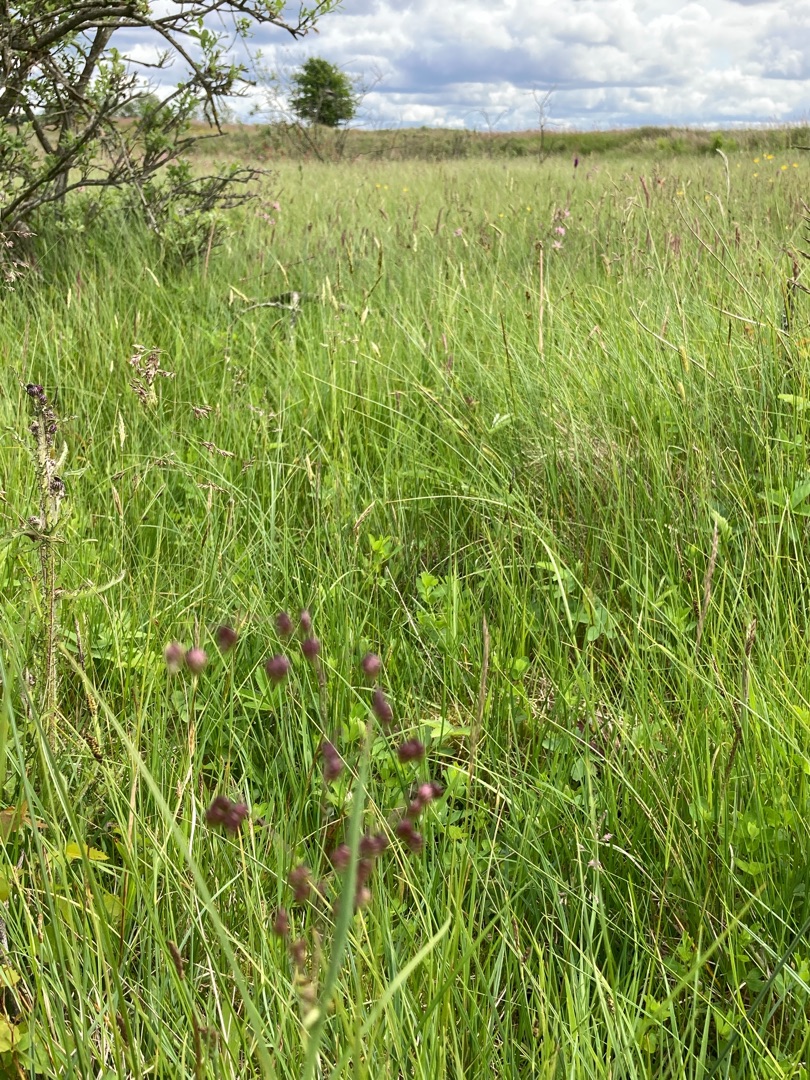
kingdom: Plantae
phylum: Tracheophyta
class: Liliopsida
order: Poales
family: Poaceae
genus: Briza
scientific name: Briza media
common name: Hjertegræs
